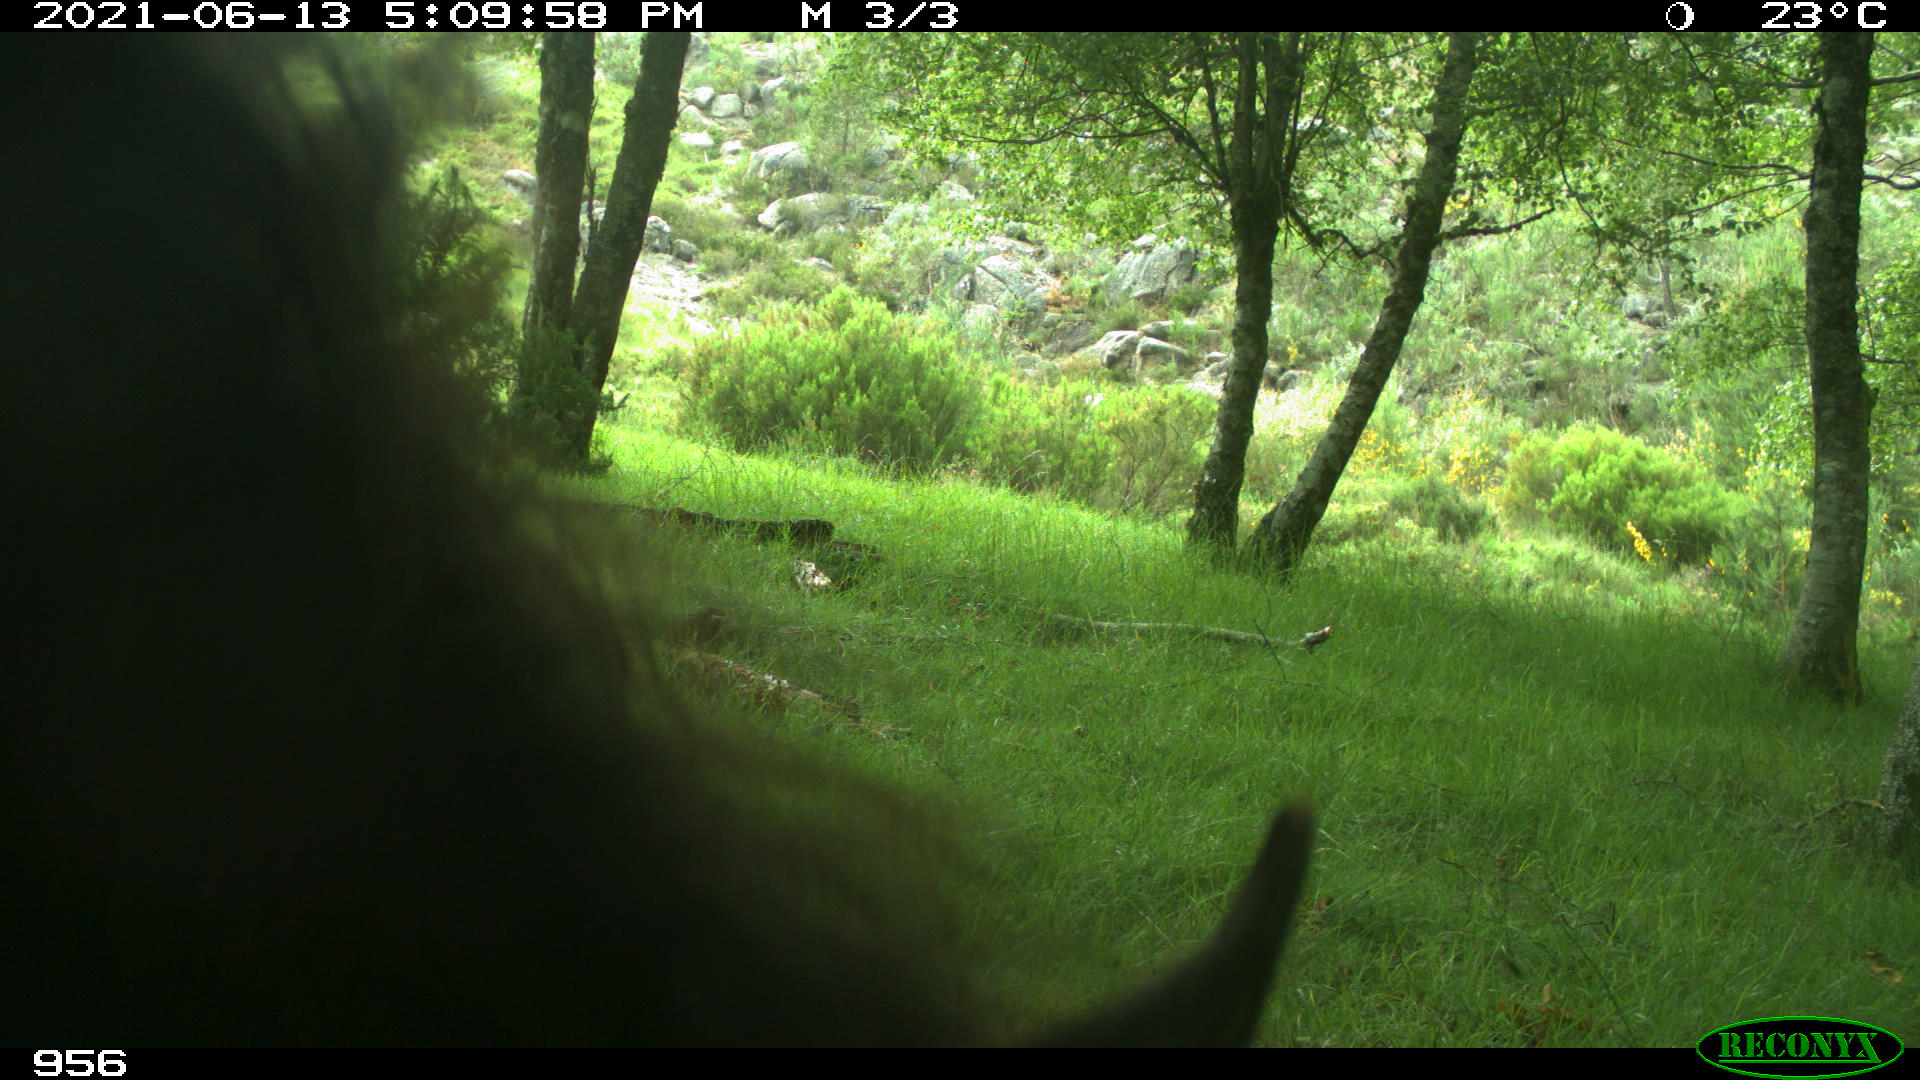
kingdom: Animalia
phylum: Chordata
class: Mammalia
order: Perissodactyla
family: Equidae
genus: Equus
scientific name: Equus caballus
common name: Horse
